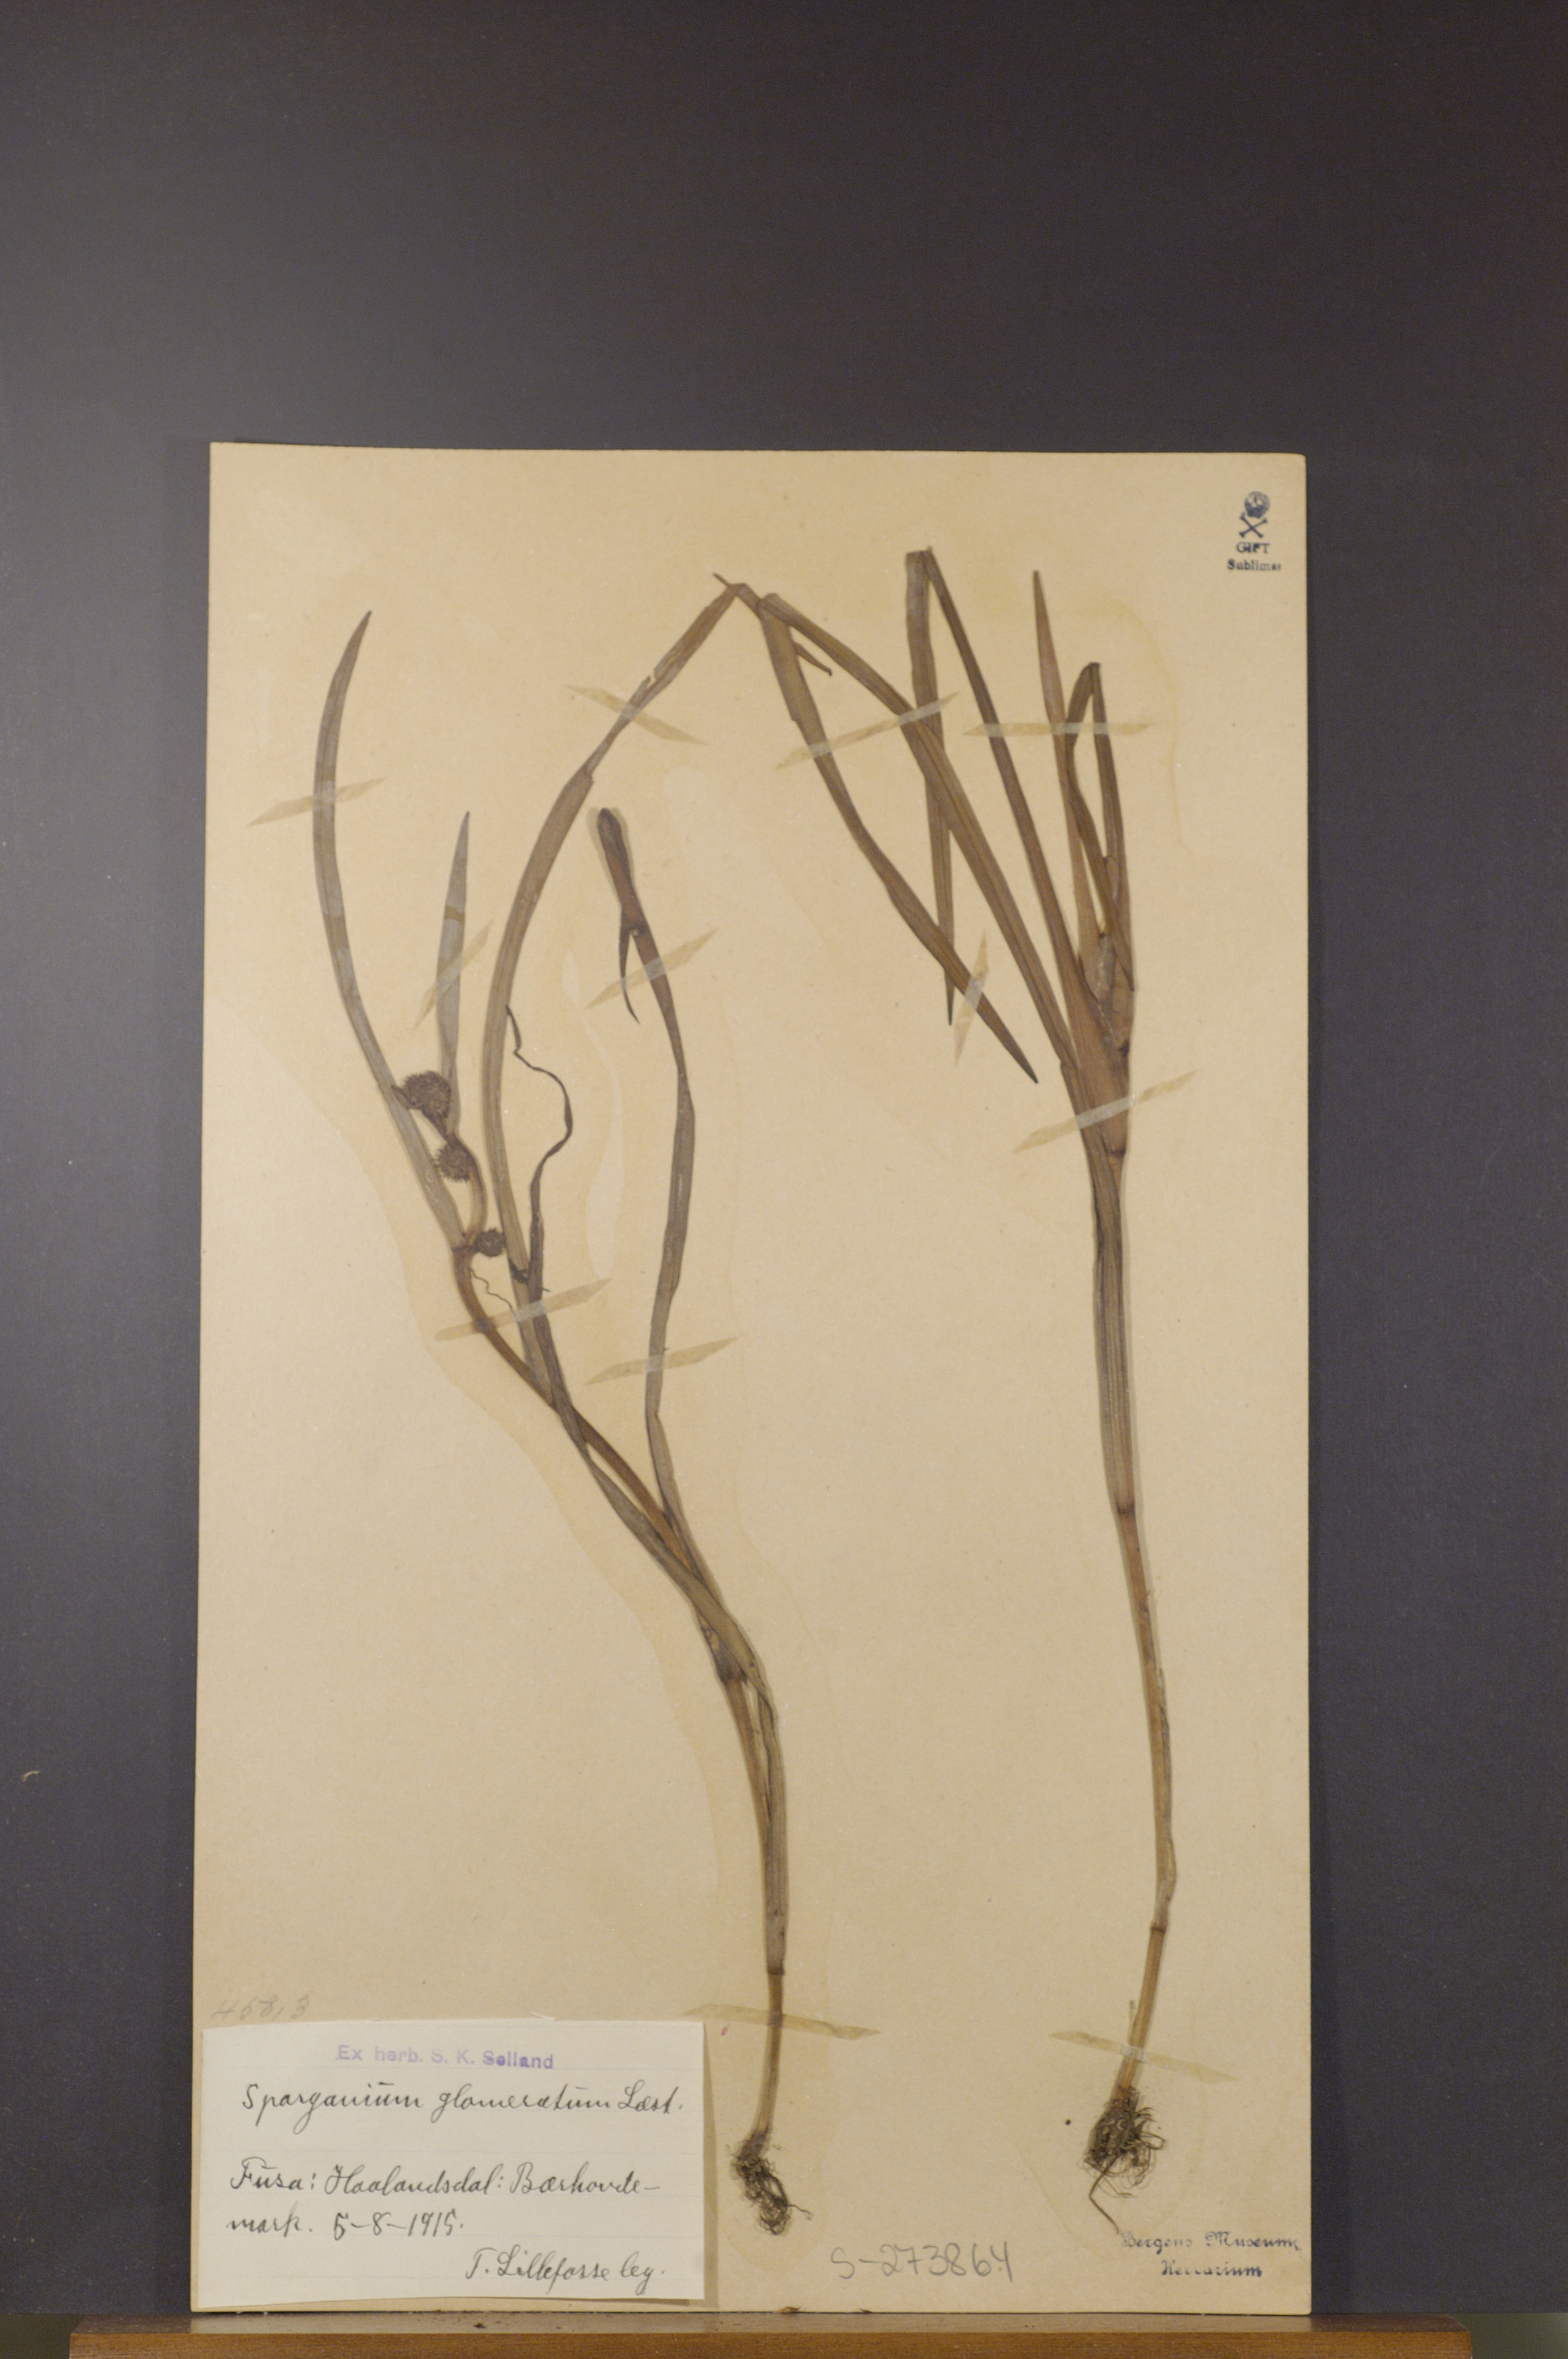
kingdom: Plantae
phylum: Tracheophyta
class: Liliopsida
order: Poales
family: Typhaceae
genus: Sparganium
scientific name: Sparganium glomeratum
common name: Clustered burreed
